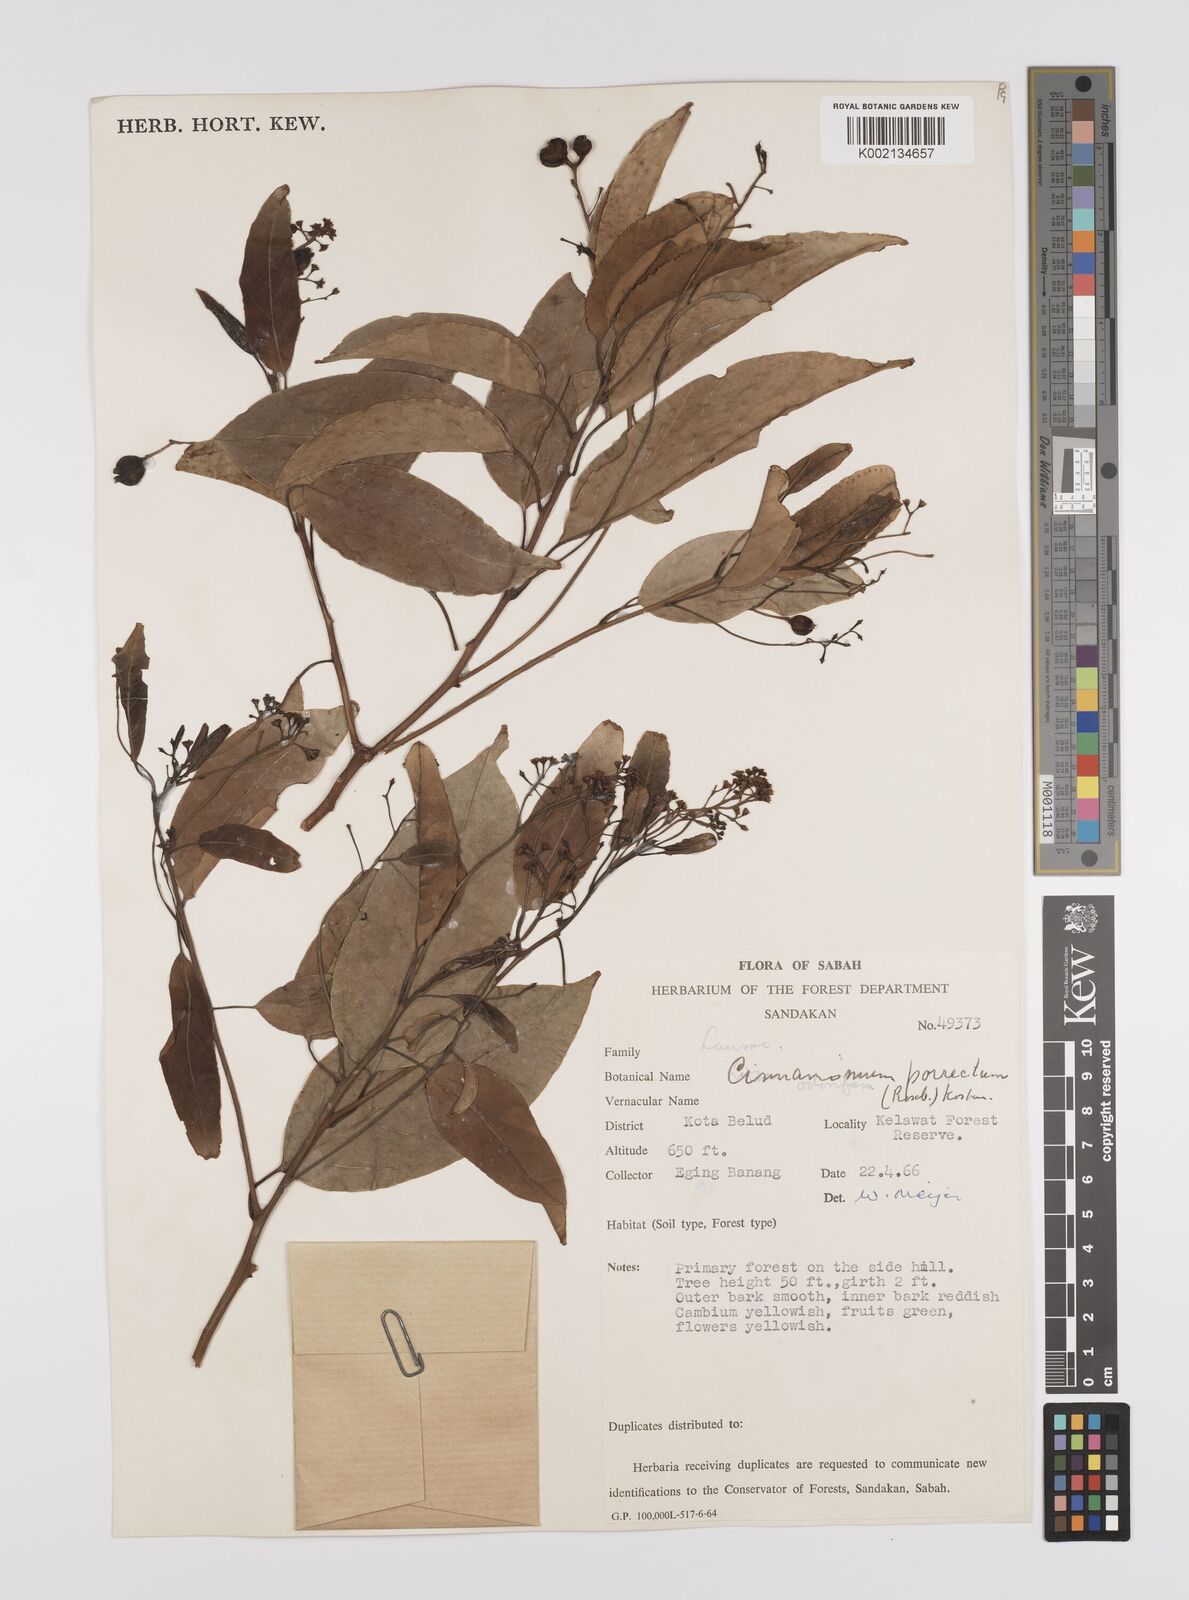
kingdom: Plantae
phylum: Tracheophyta
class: Magnoliopsida
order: Laurales
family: Lauraceae
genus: Cinnamomum
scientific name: Cinnamomum parthenoxylon
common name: Martaban camphor wood
